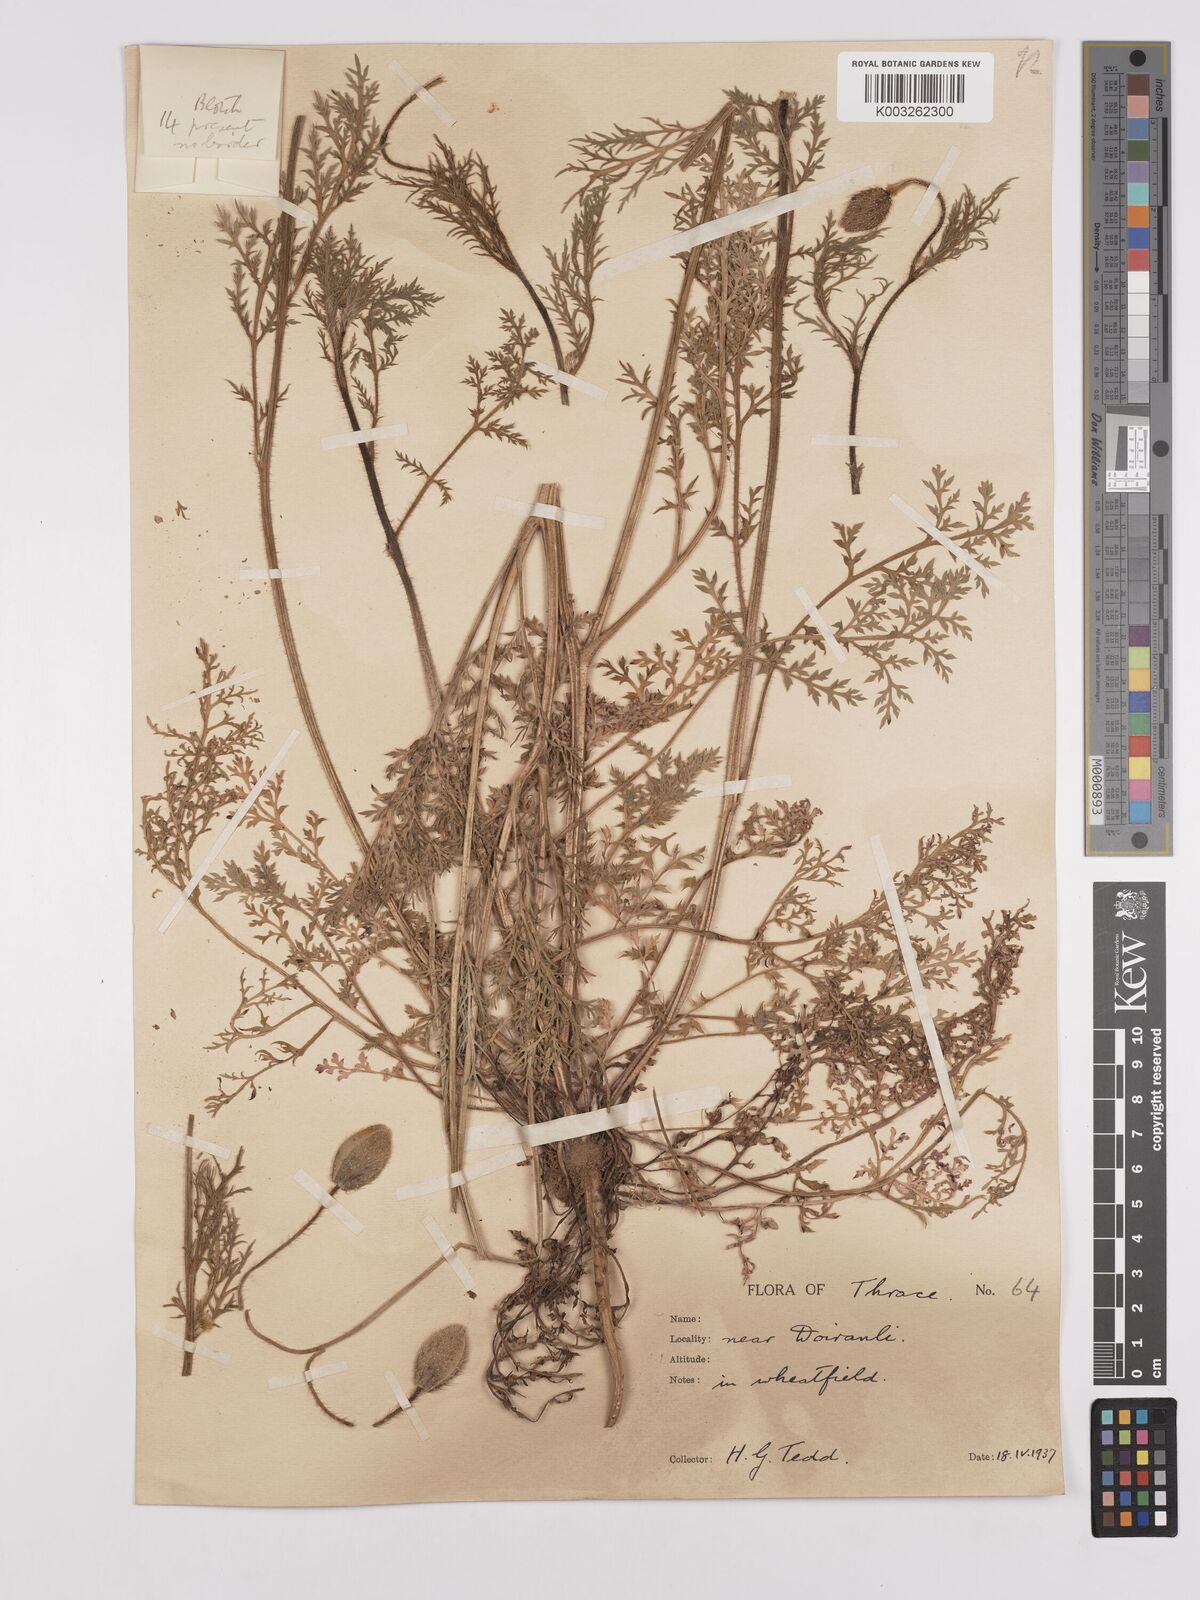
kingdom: Plantae
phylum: Tracheophyta
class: Magnoliopsida
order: Ranunculales
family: Papaveraceae
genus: Papaver
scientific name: Papaver rhoeas
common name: Corn poppy
